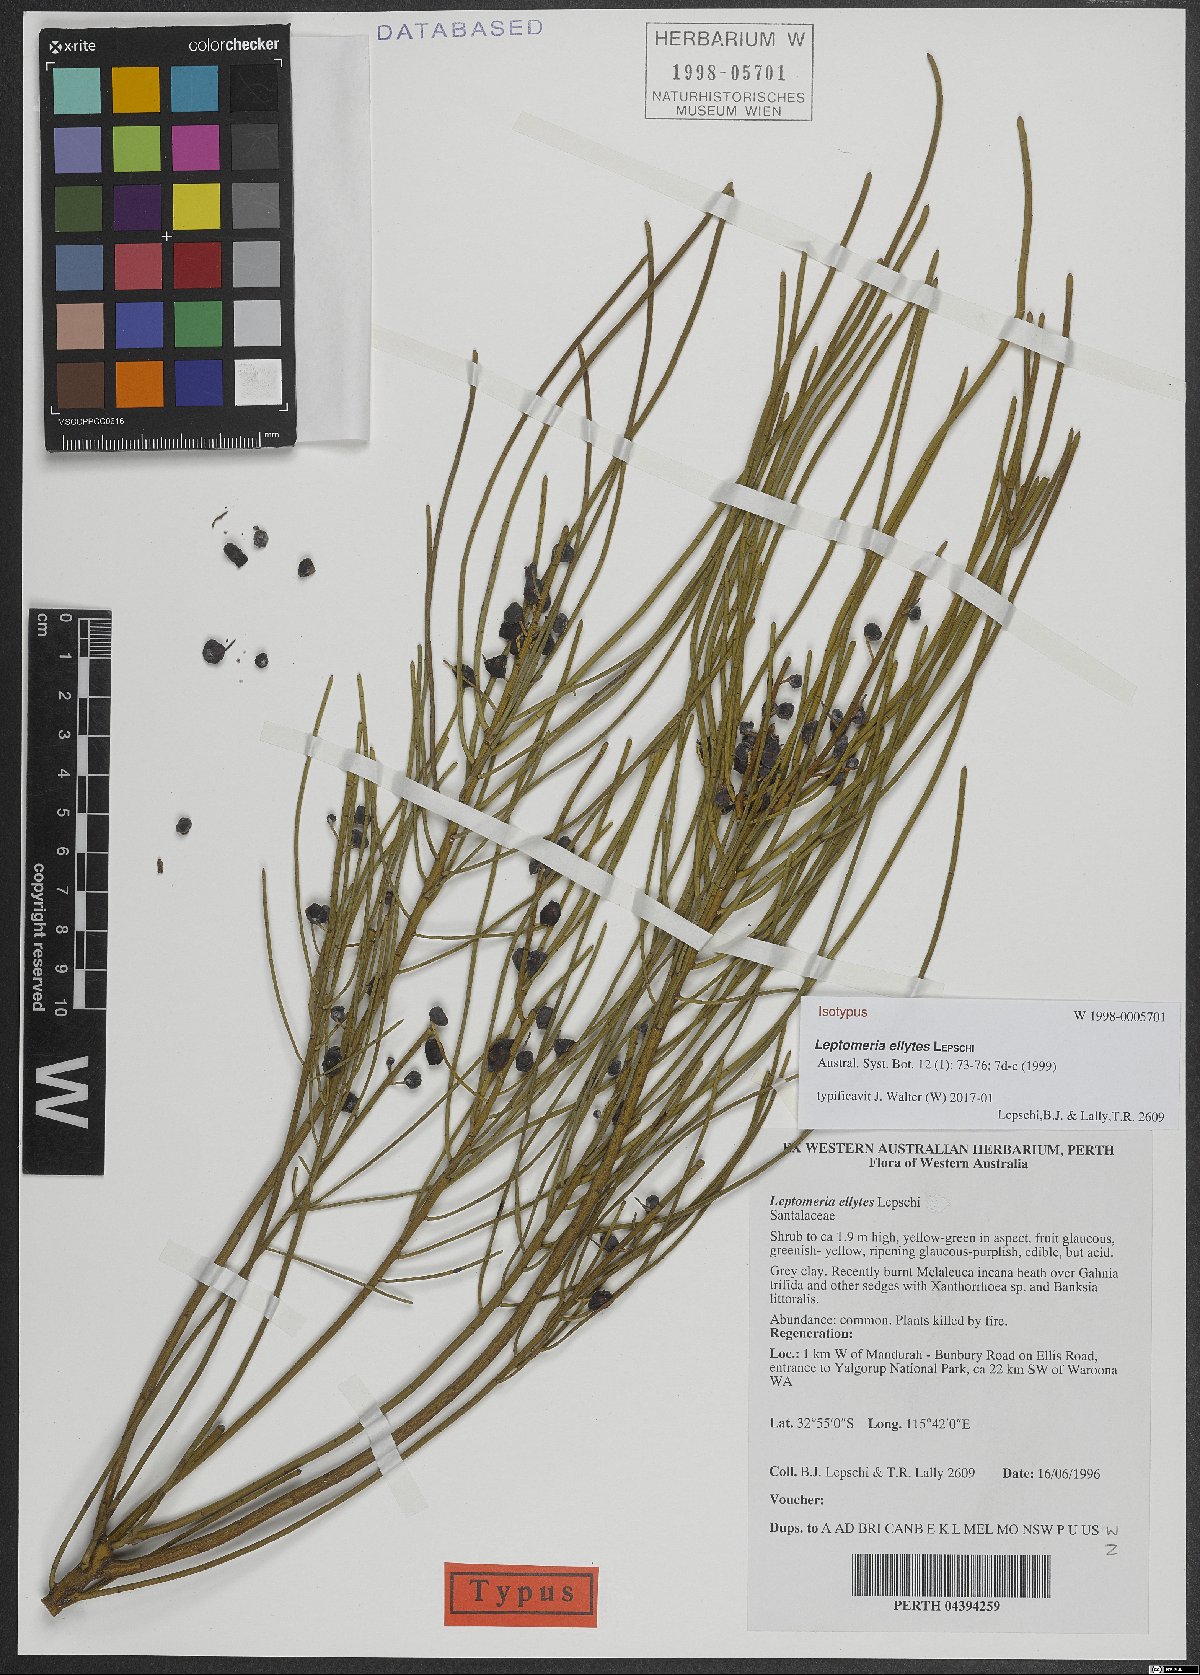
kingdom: Plantae
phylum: Tracheophyta
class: Magnoliopsida
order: Santalales
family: Amphorogynaceae
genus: Leptomeria
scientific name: Leptomeria ellytes
